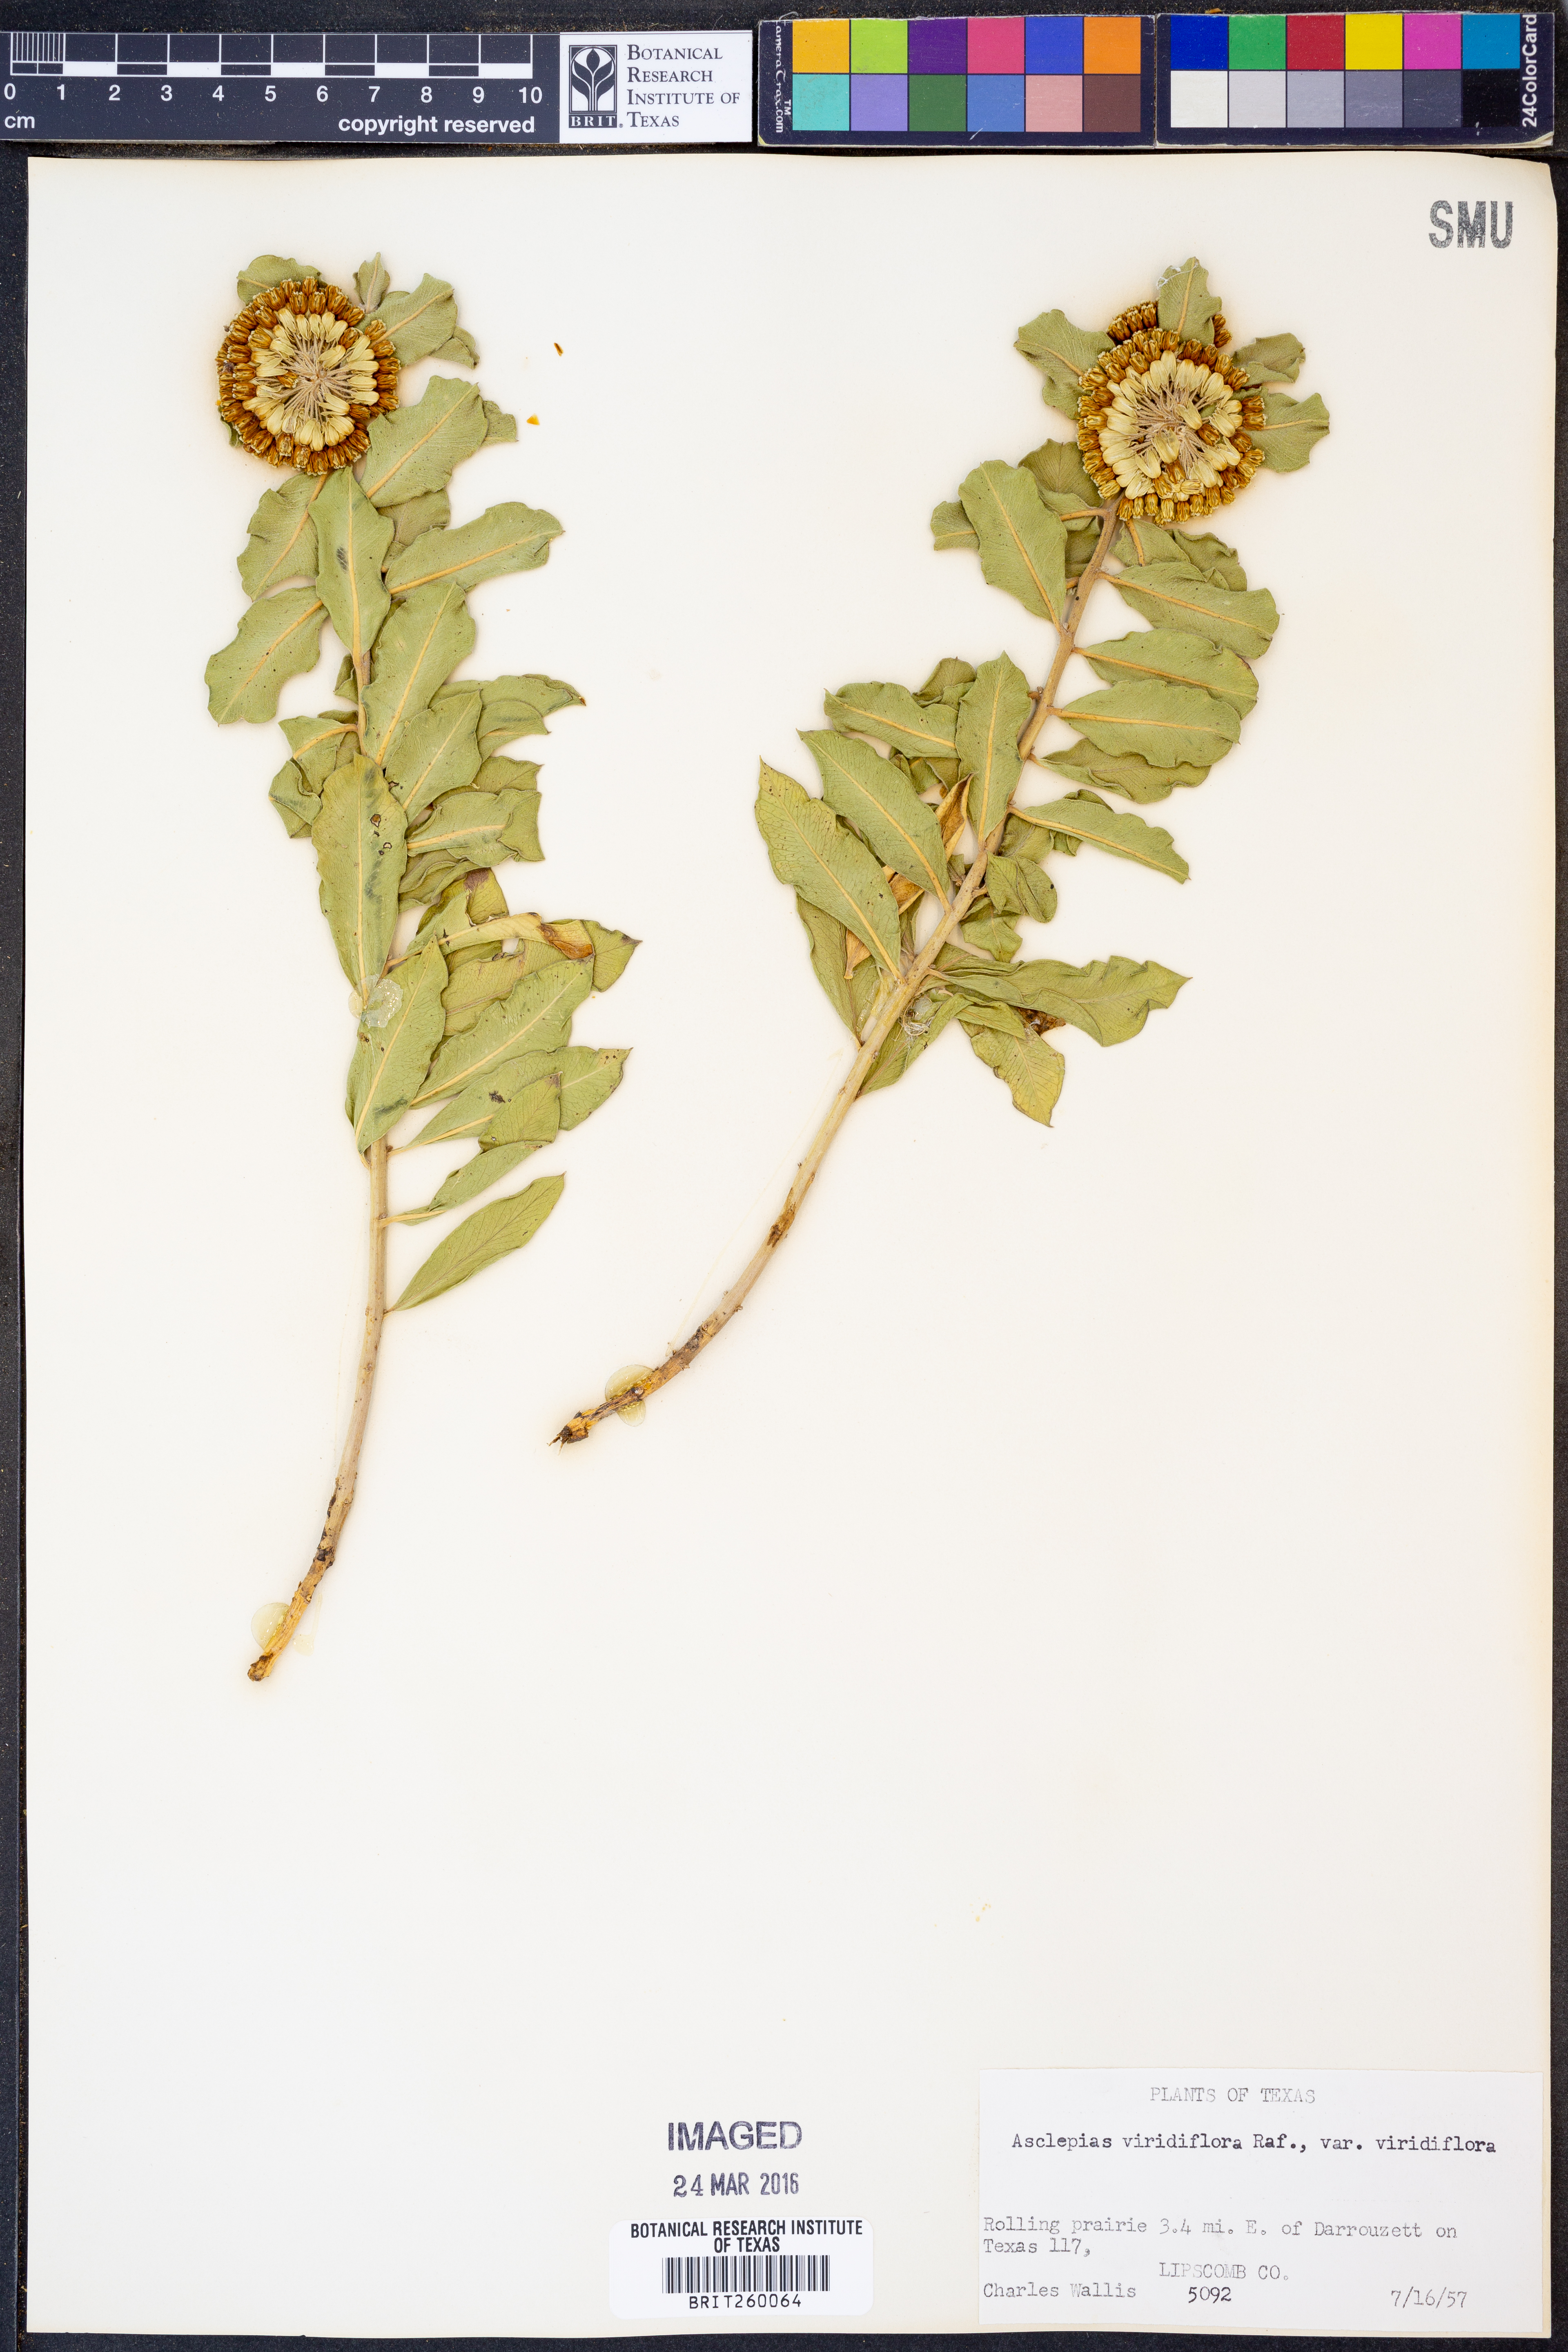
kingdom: Plantae
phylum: Tracheophyta
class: Magnoliopsida
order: Gentianales
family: Apocynaceae
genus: Asclepias
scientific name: Asclepias viridiflora
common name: Green comet milkweed
